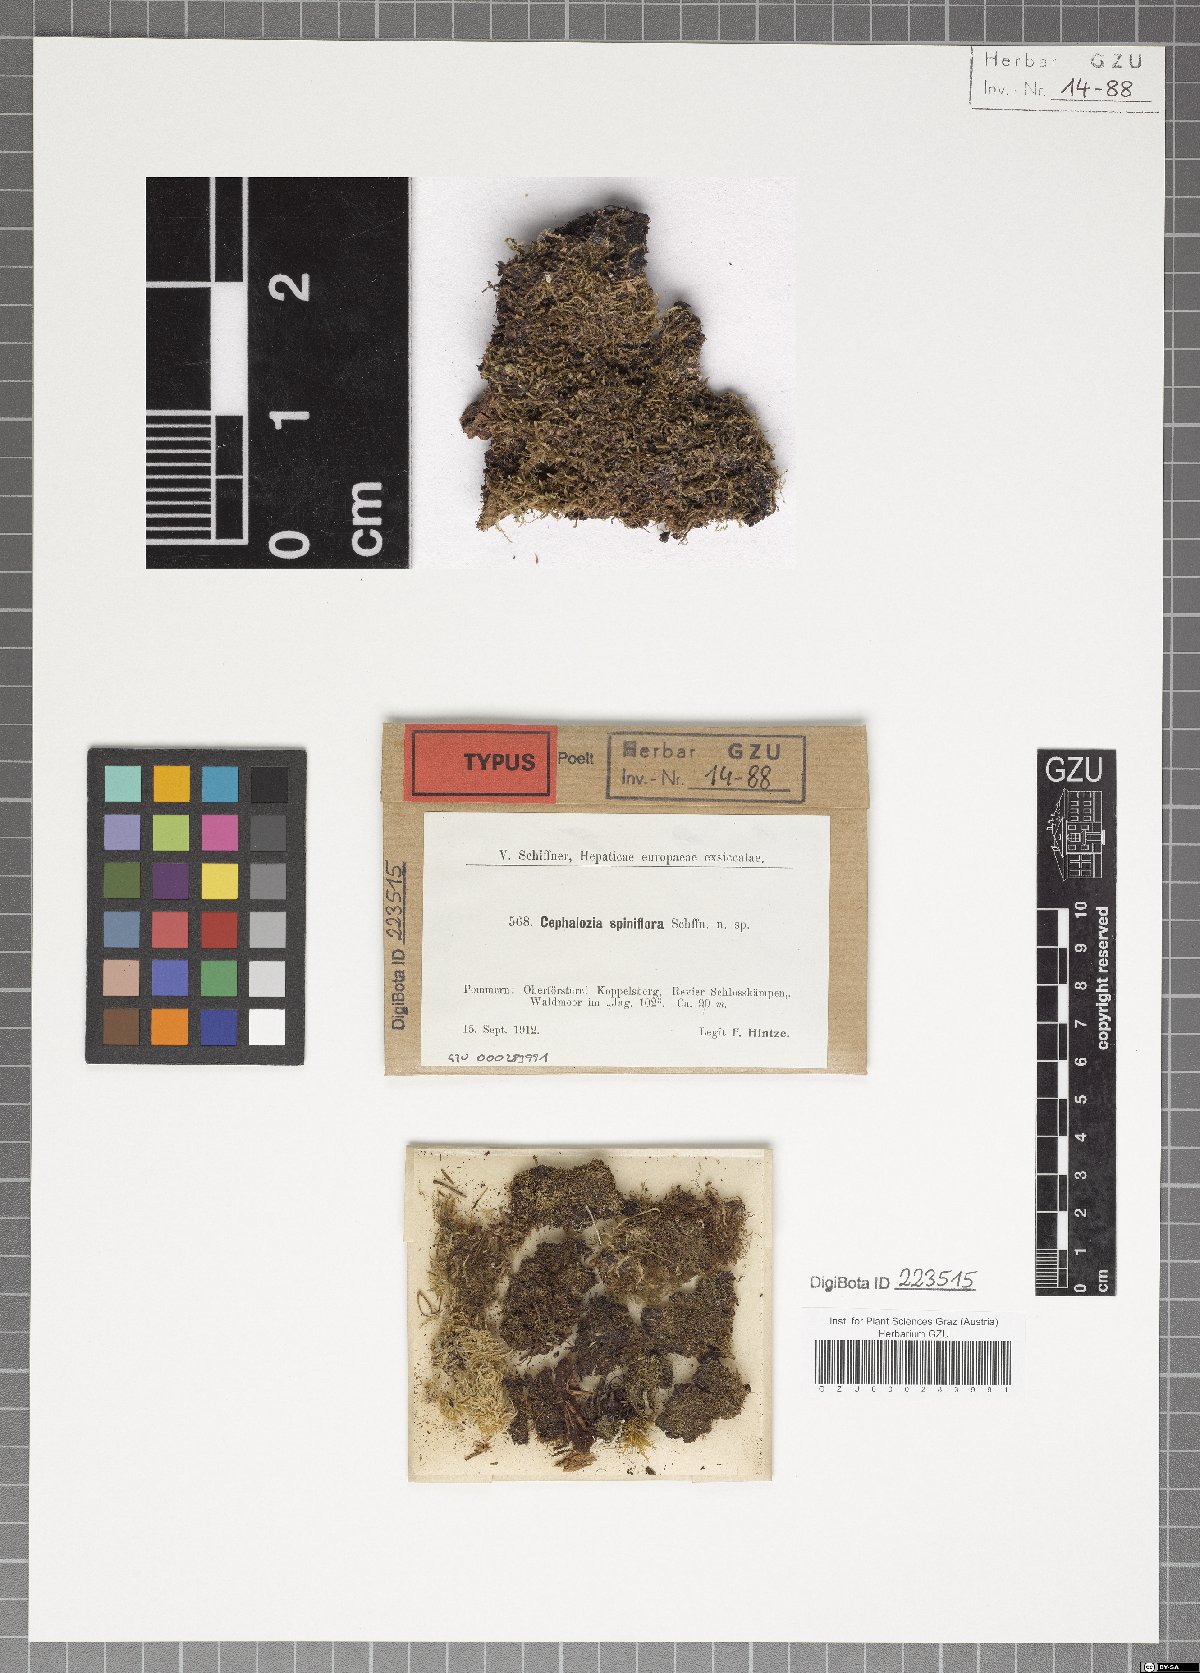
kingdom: Plantae
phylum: Marchantiophyta
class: Jungermanniopsida
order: Jungermanniales
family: Cephaloziaceae
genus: Fuscocephaloziopsis
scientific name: Fuscocephaloziopsis macrostachya
